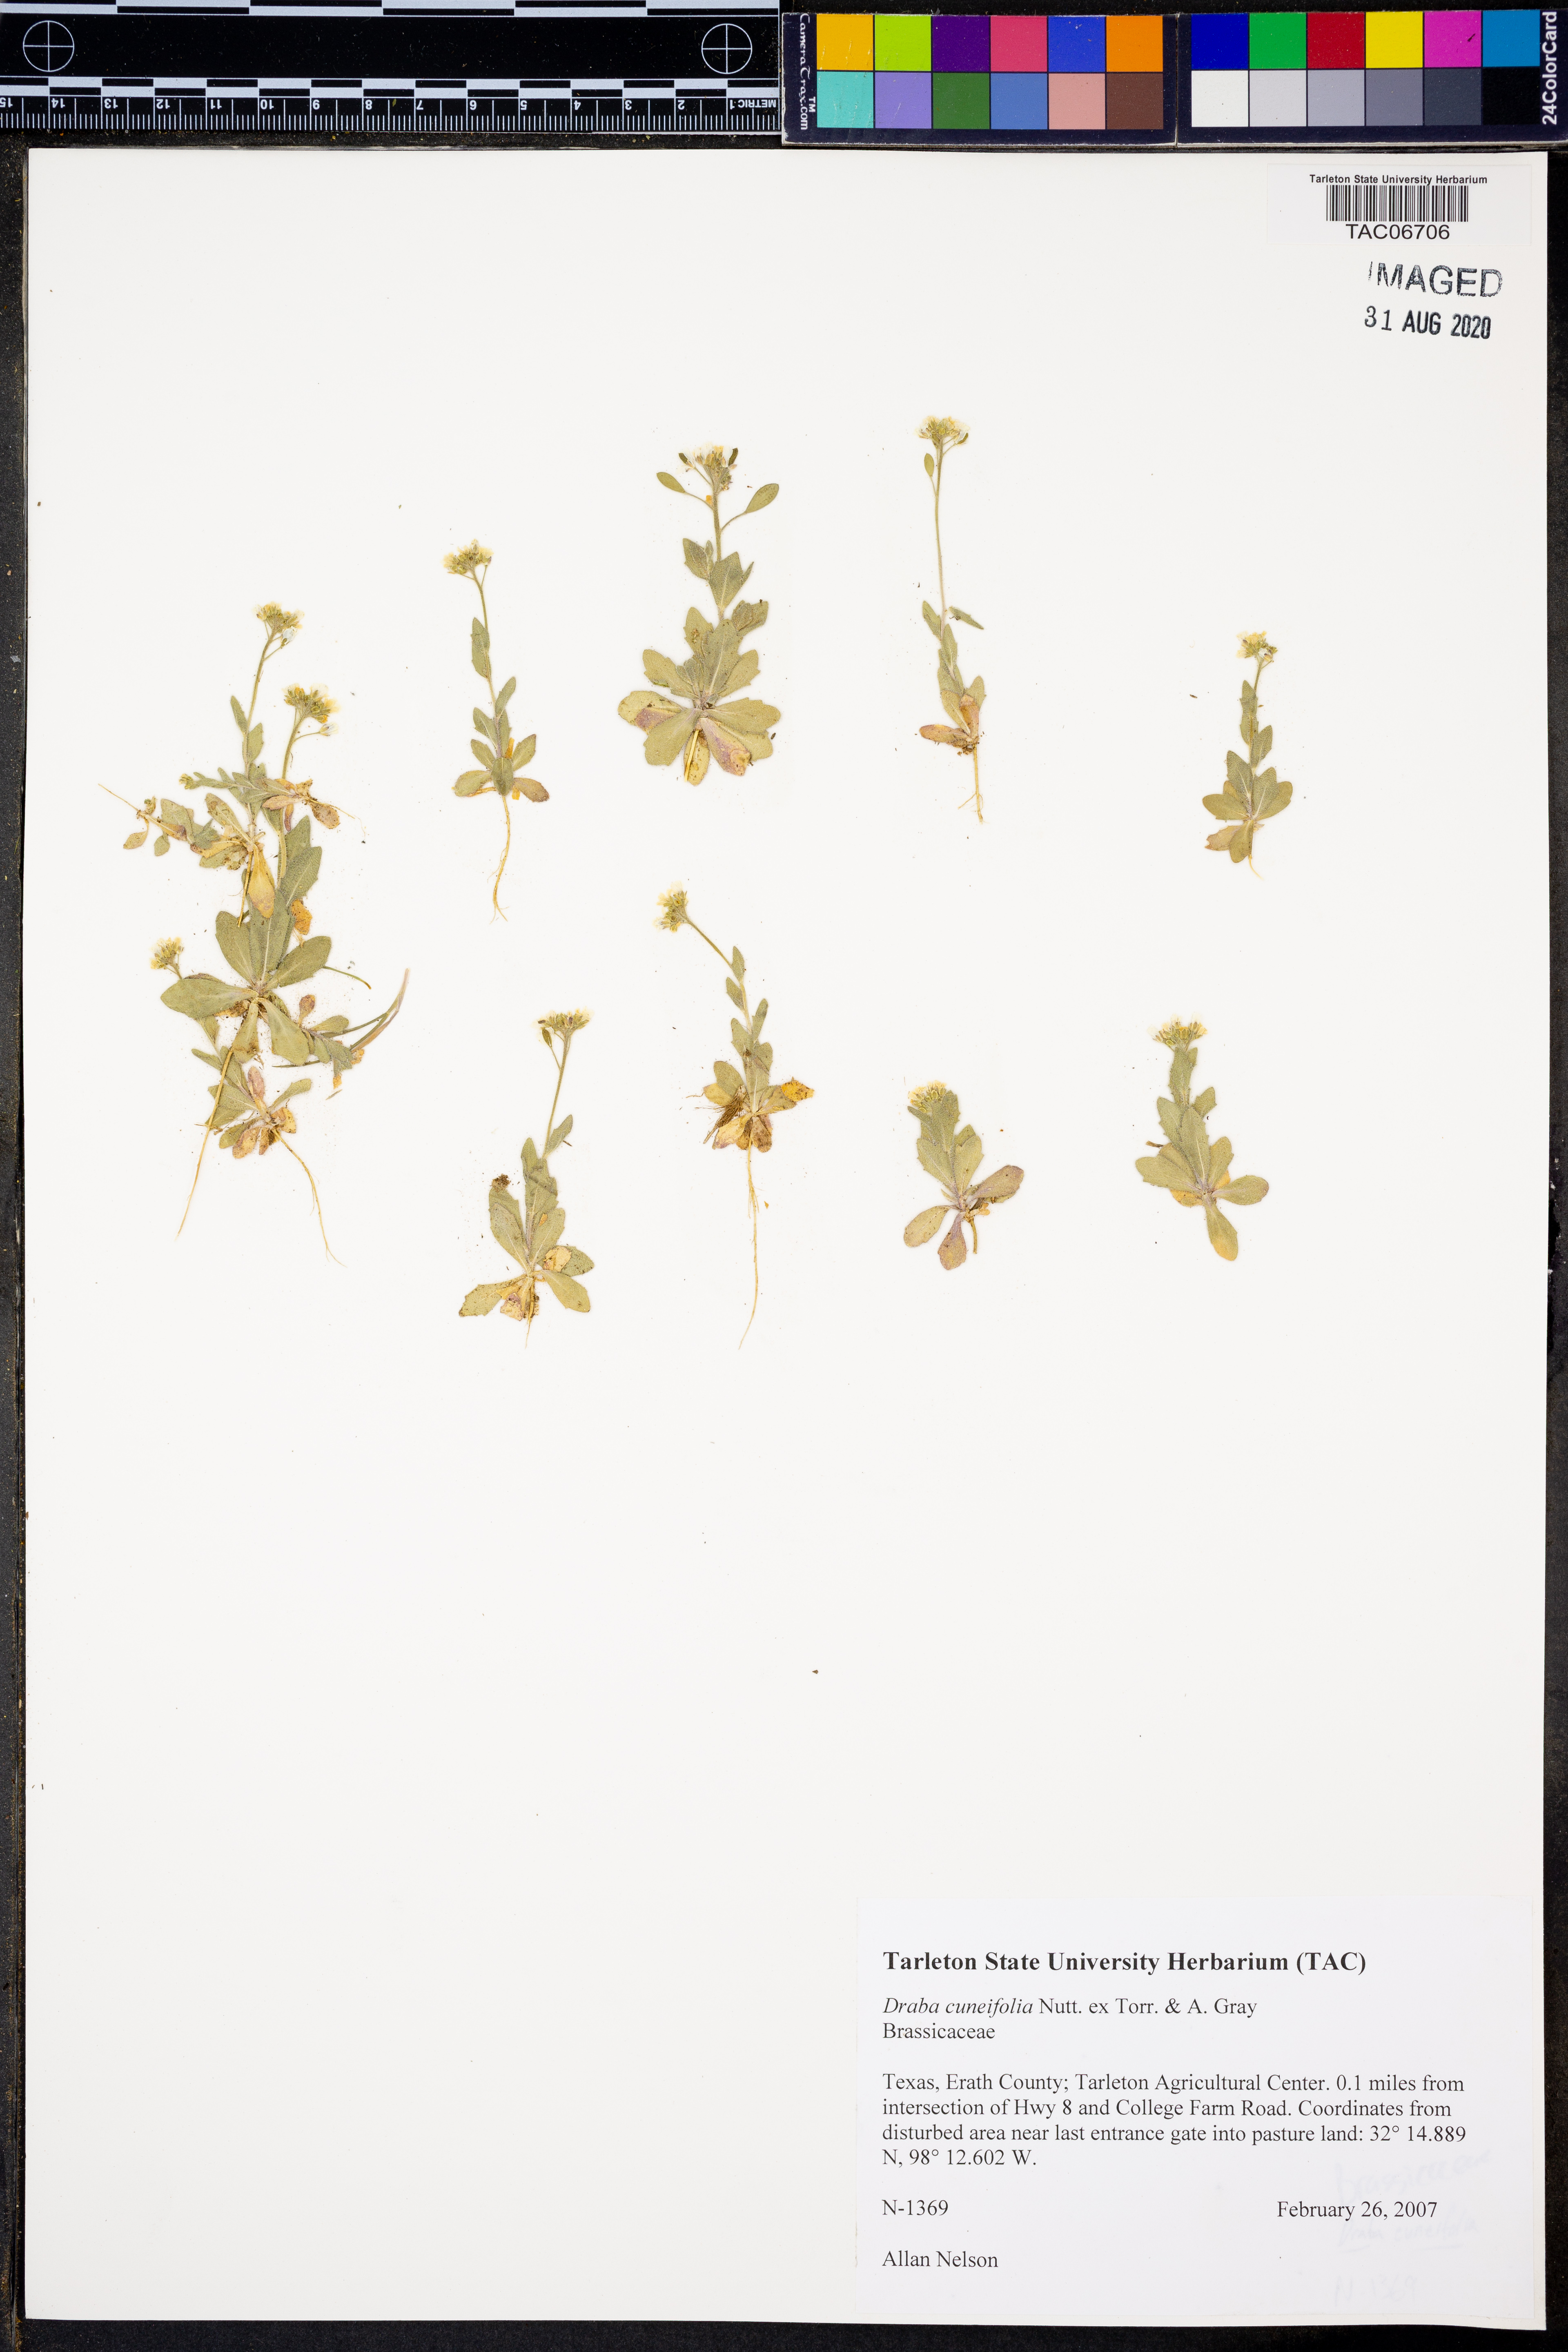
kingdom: Plantae
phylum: Tracheophyta
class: Magnoliopsida
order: Brassicales
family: Brassicaceae
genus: Tomostima
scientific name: Tomostima cuneifolia
